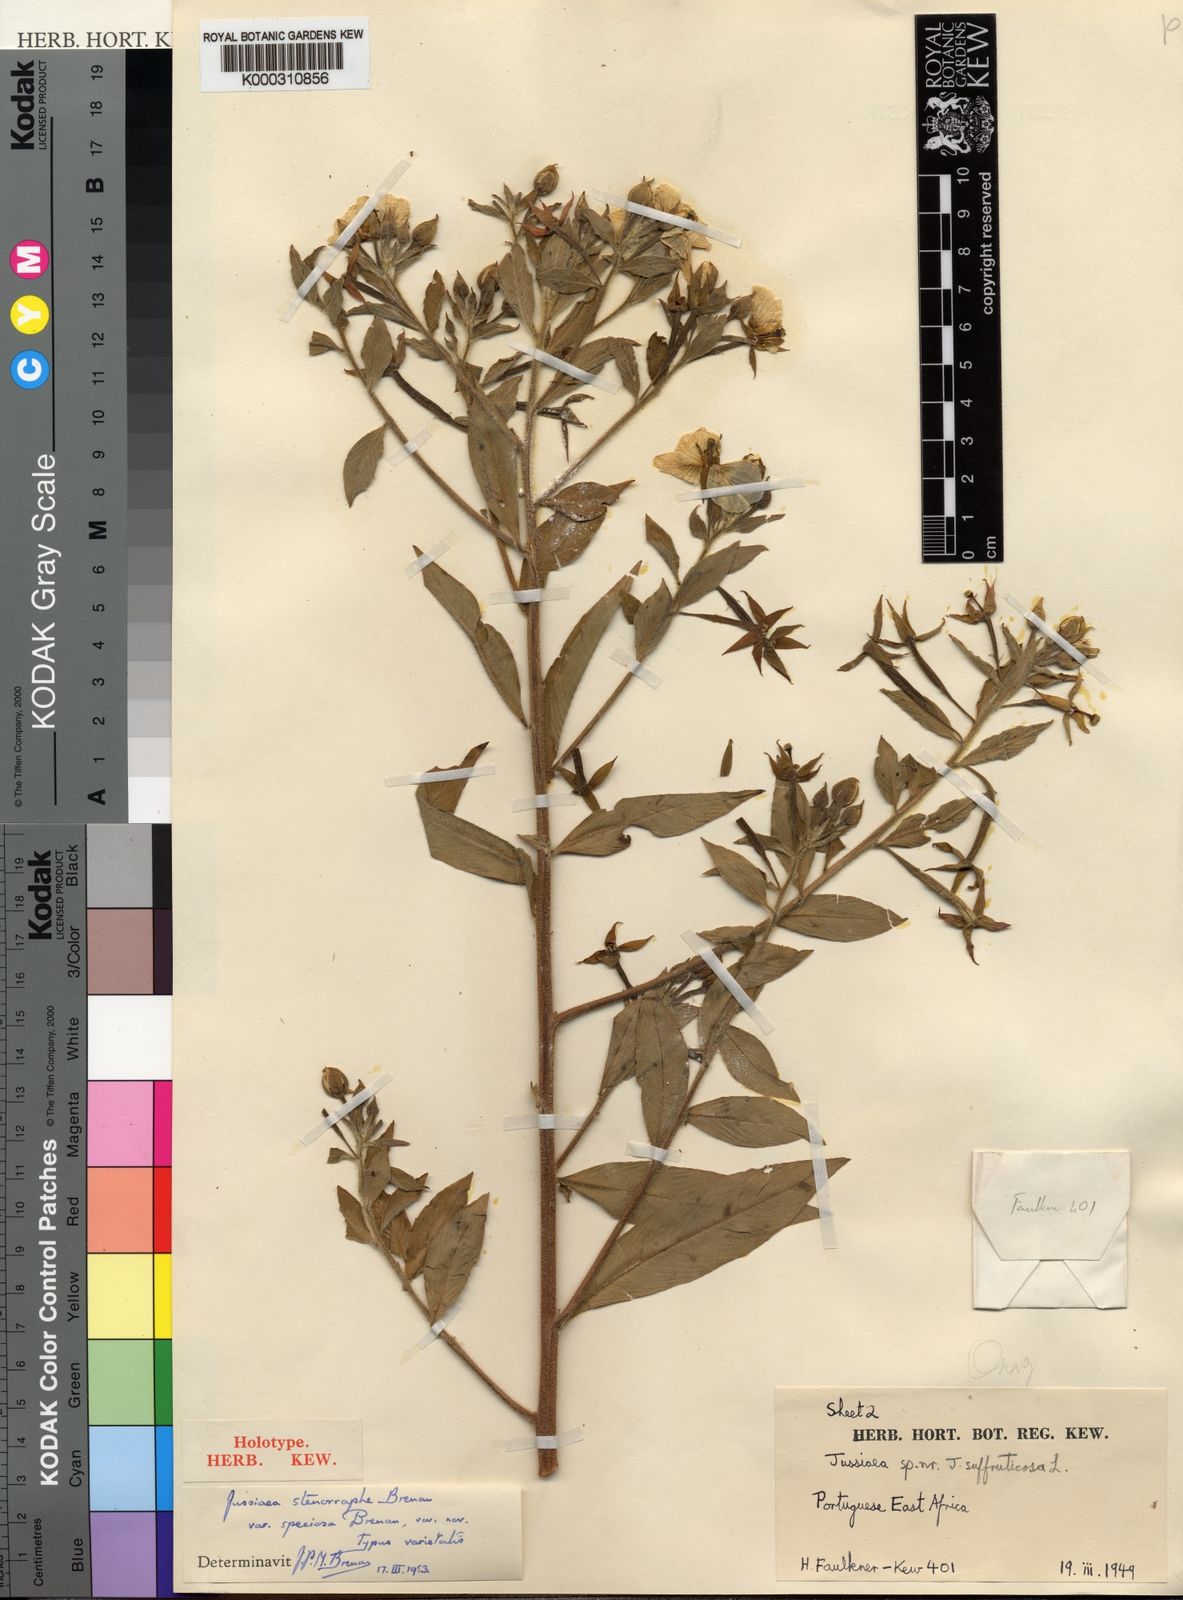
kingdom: Plantae
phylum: Tracheophyta
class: Magnoliopsida
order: Myrtales
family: Onagraceae
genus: Ludwigia
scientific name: Ludwigia speciosa
